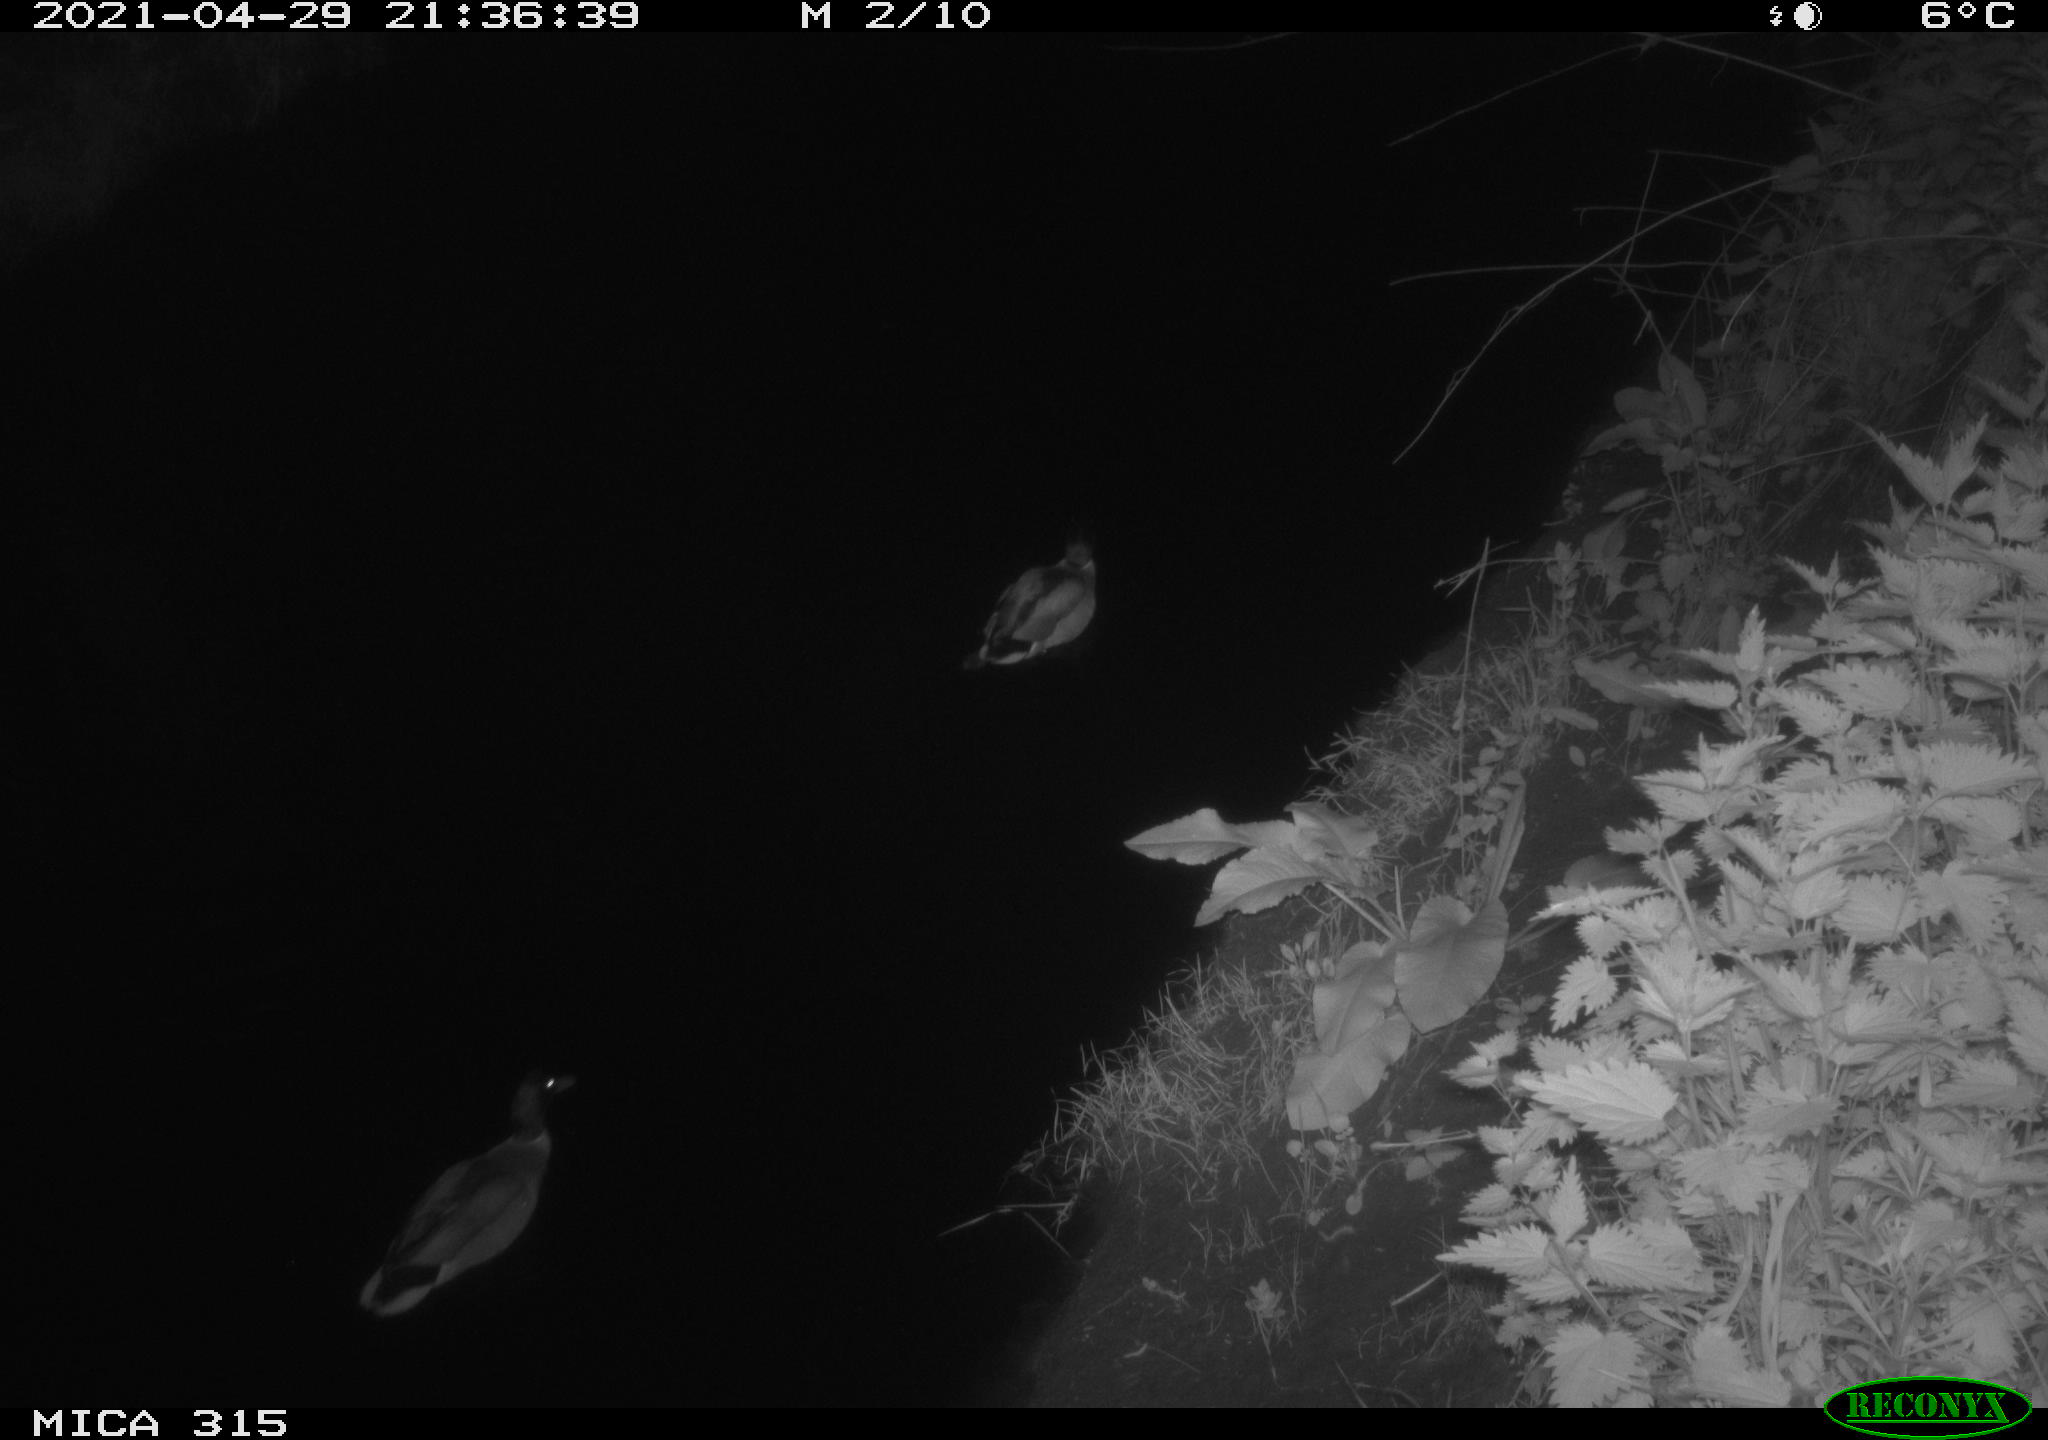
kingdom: Animalia
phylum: Chordata
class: Aves
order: Anseriformes
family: Anatidae
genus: Anas
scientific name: Anas
